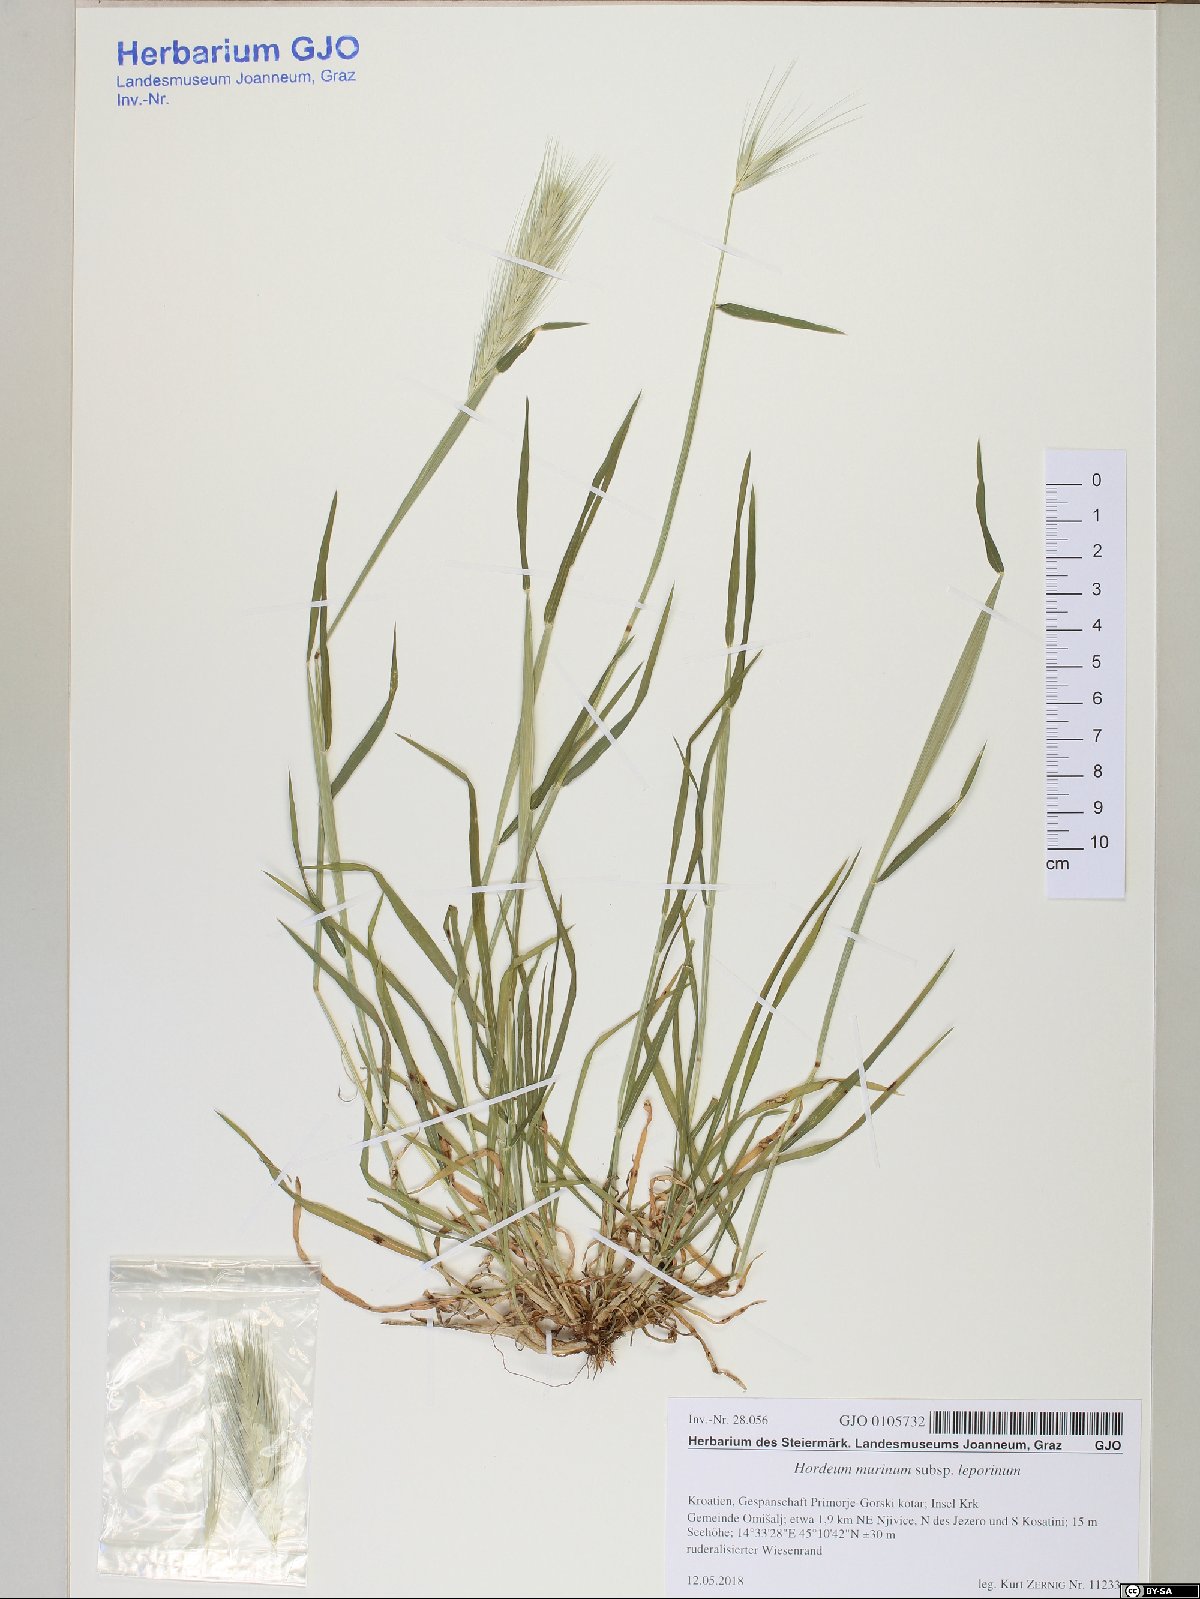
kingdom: Plantae
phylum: Tracheophyta
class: Liliopsida
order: Poales
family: Poaceae
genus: Hordeum
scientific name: Hordeum murinum
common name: Wall barley
